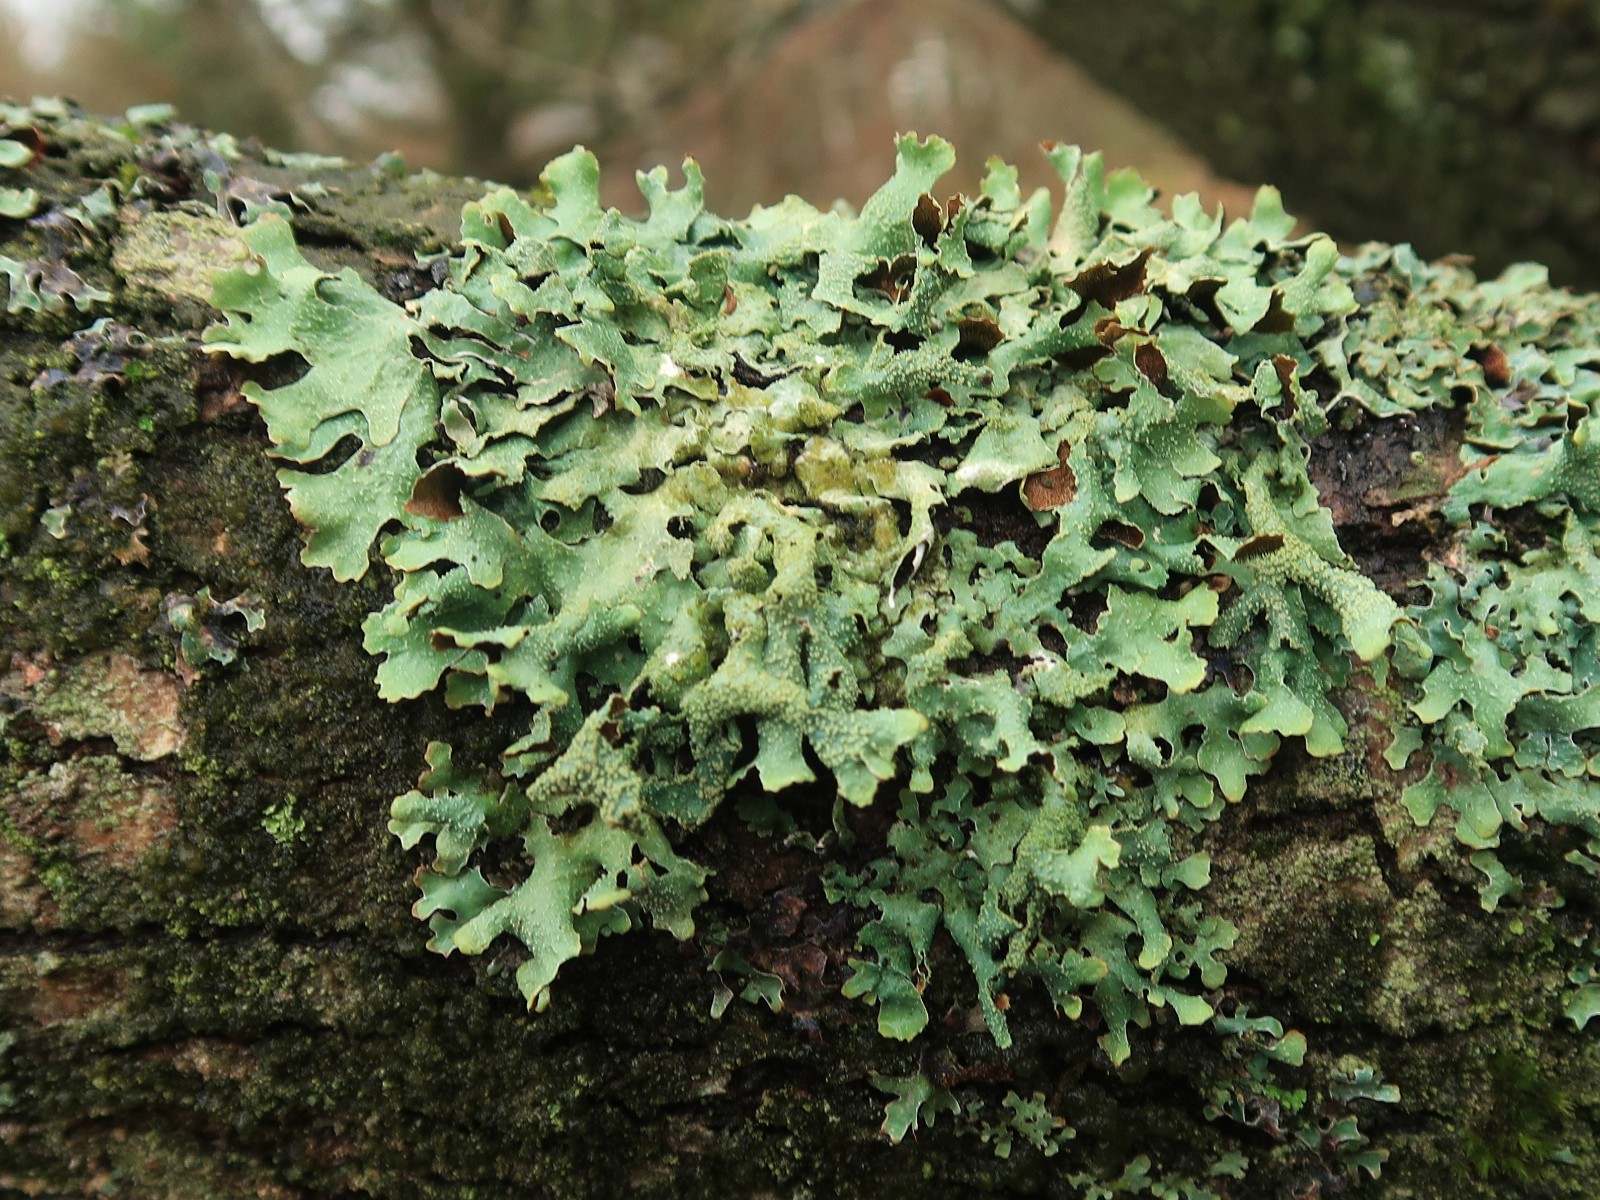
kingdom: Fungi
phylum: Ascomycota
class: Lecanoromycetes
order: Lecanorales
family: Parmeliaceae
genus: Parmelia
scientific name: Parmelia submontana
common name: langlobet skållav
